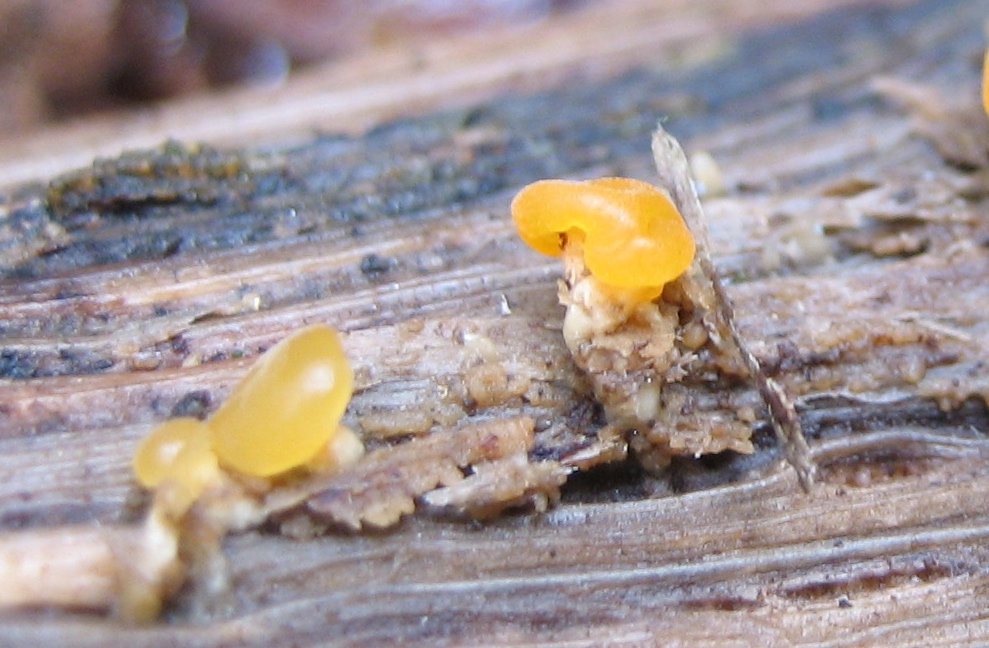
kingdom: Fungi
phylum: Basidiomycota
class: Dacrymycetes
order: Dacrymycetales
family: Dacrymycetaceae
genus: Dacrymyces
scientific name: Dacrymyces capitatus
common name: stilket tåresvamp
